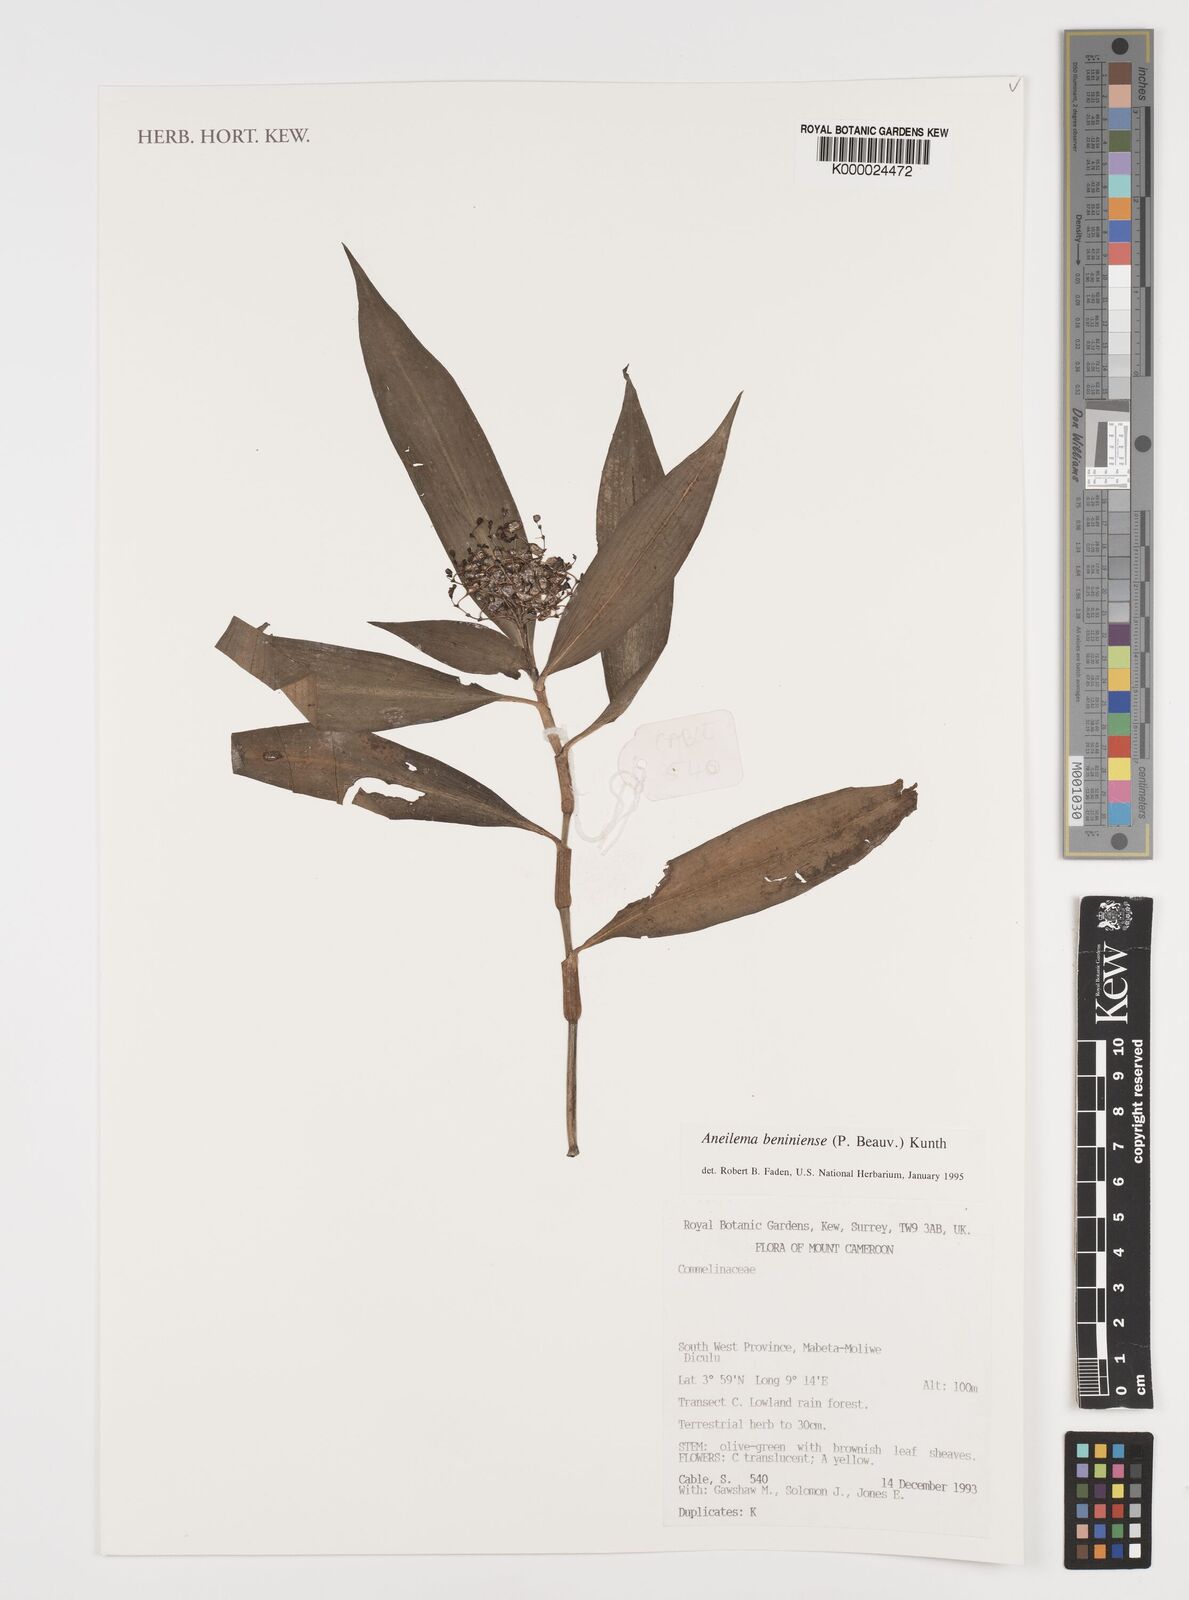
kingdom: Plantae
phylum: Tracheophyta
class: Liliopsida
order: Commelinales
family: Commelinaceae
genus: Aneilema
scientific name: Aneilema beniniense
